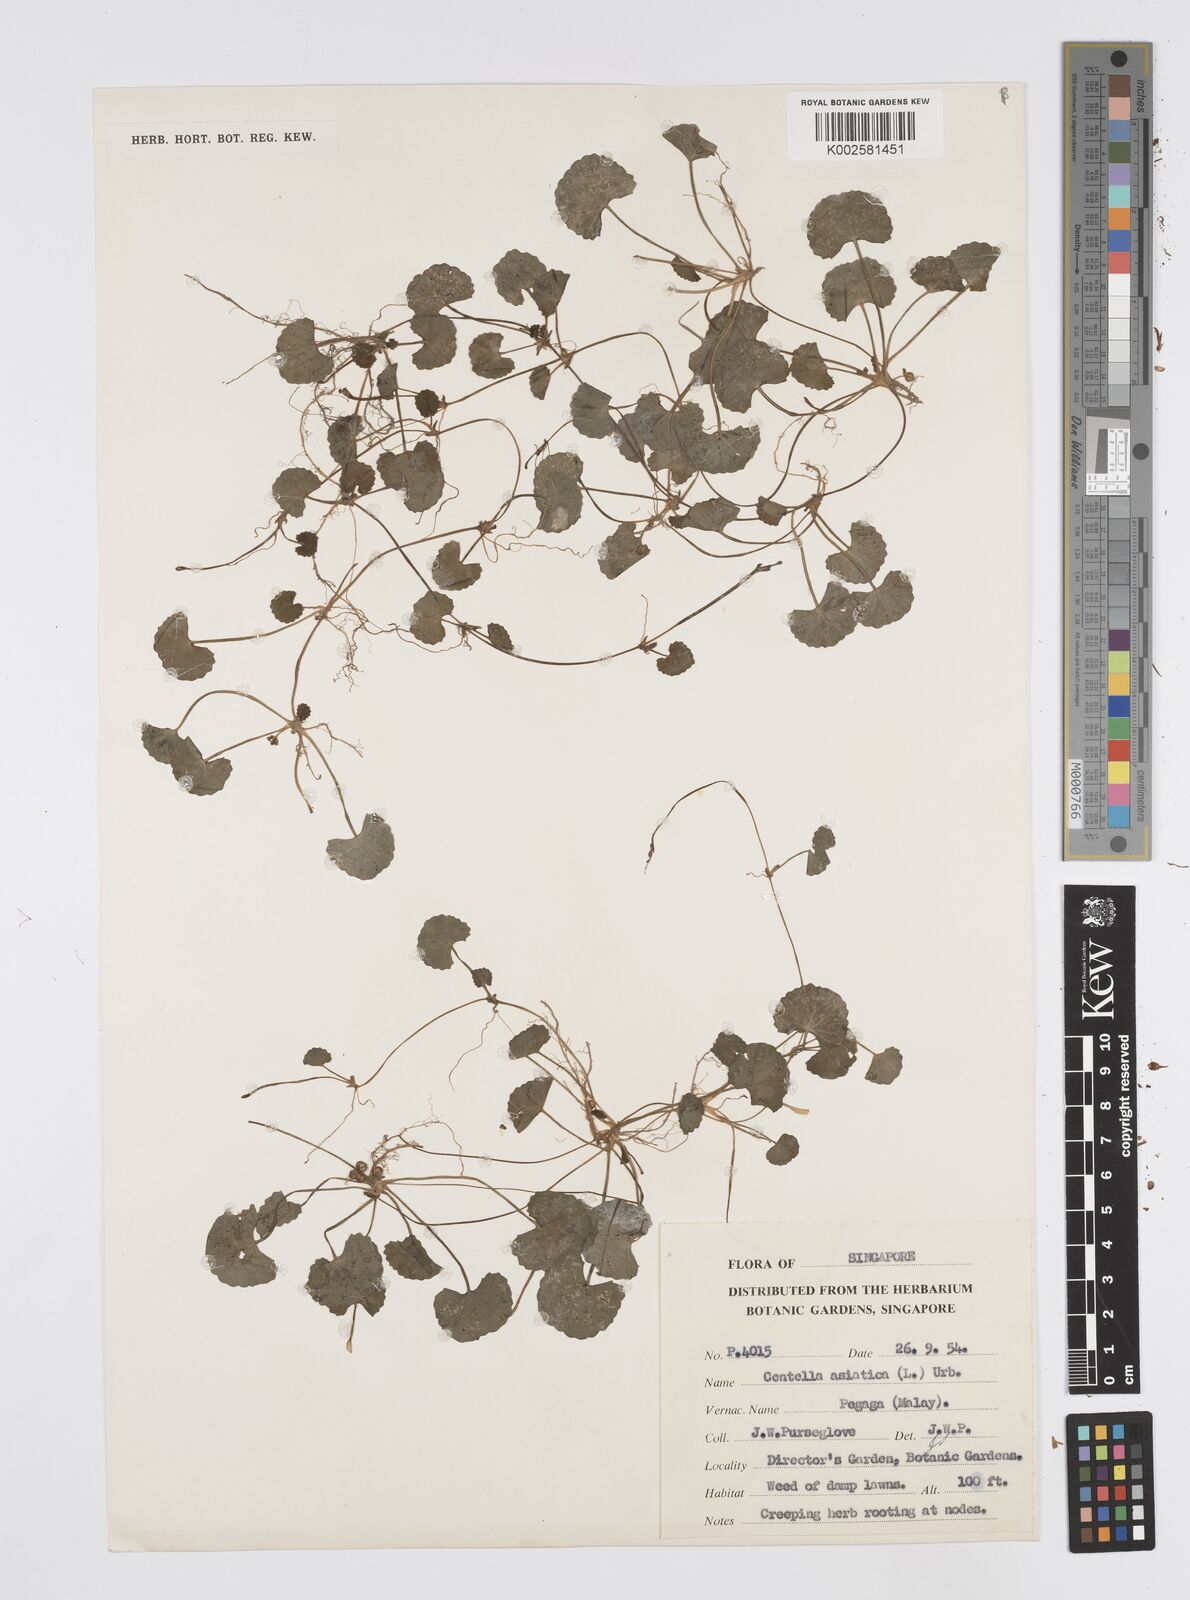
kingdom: Plantae
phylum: Tracheophyta
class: Magnoliopsida
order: Apiales
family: Apiaceae
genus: Centella
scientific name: Centella asiatica
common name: Spadeleaf
